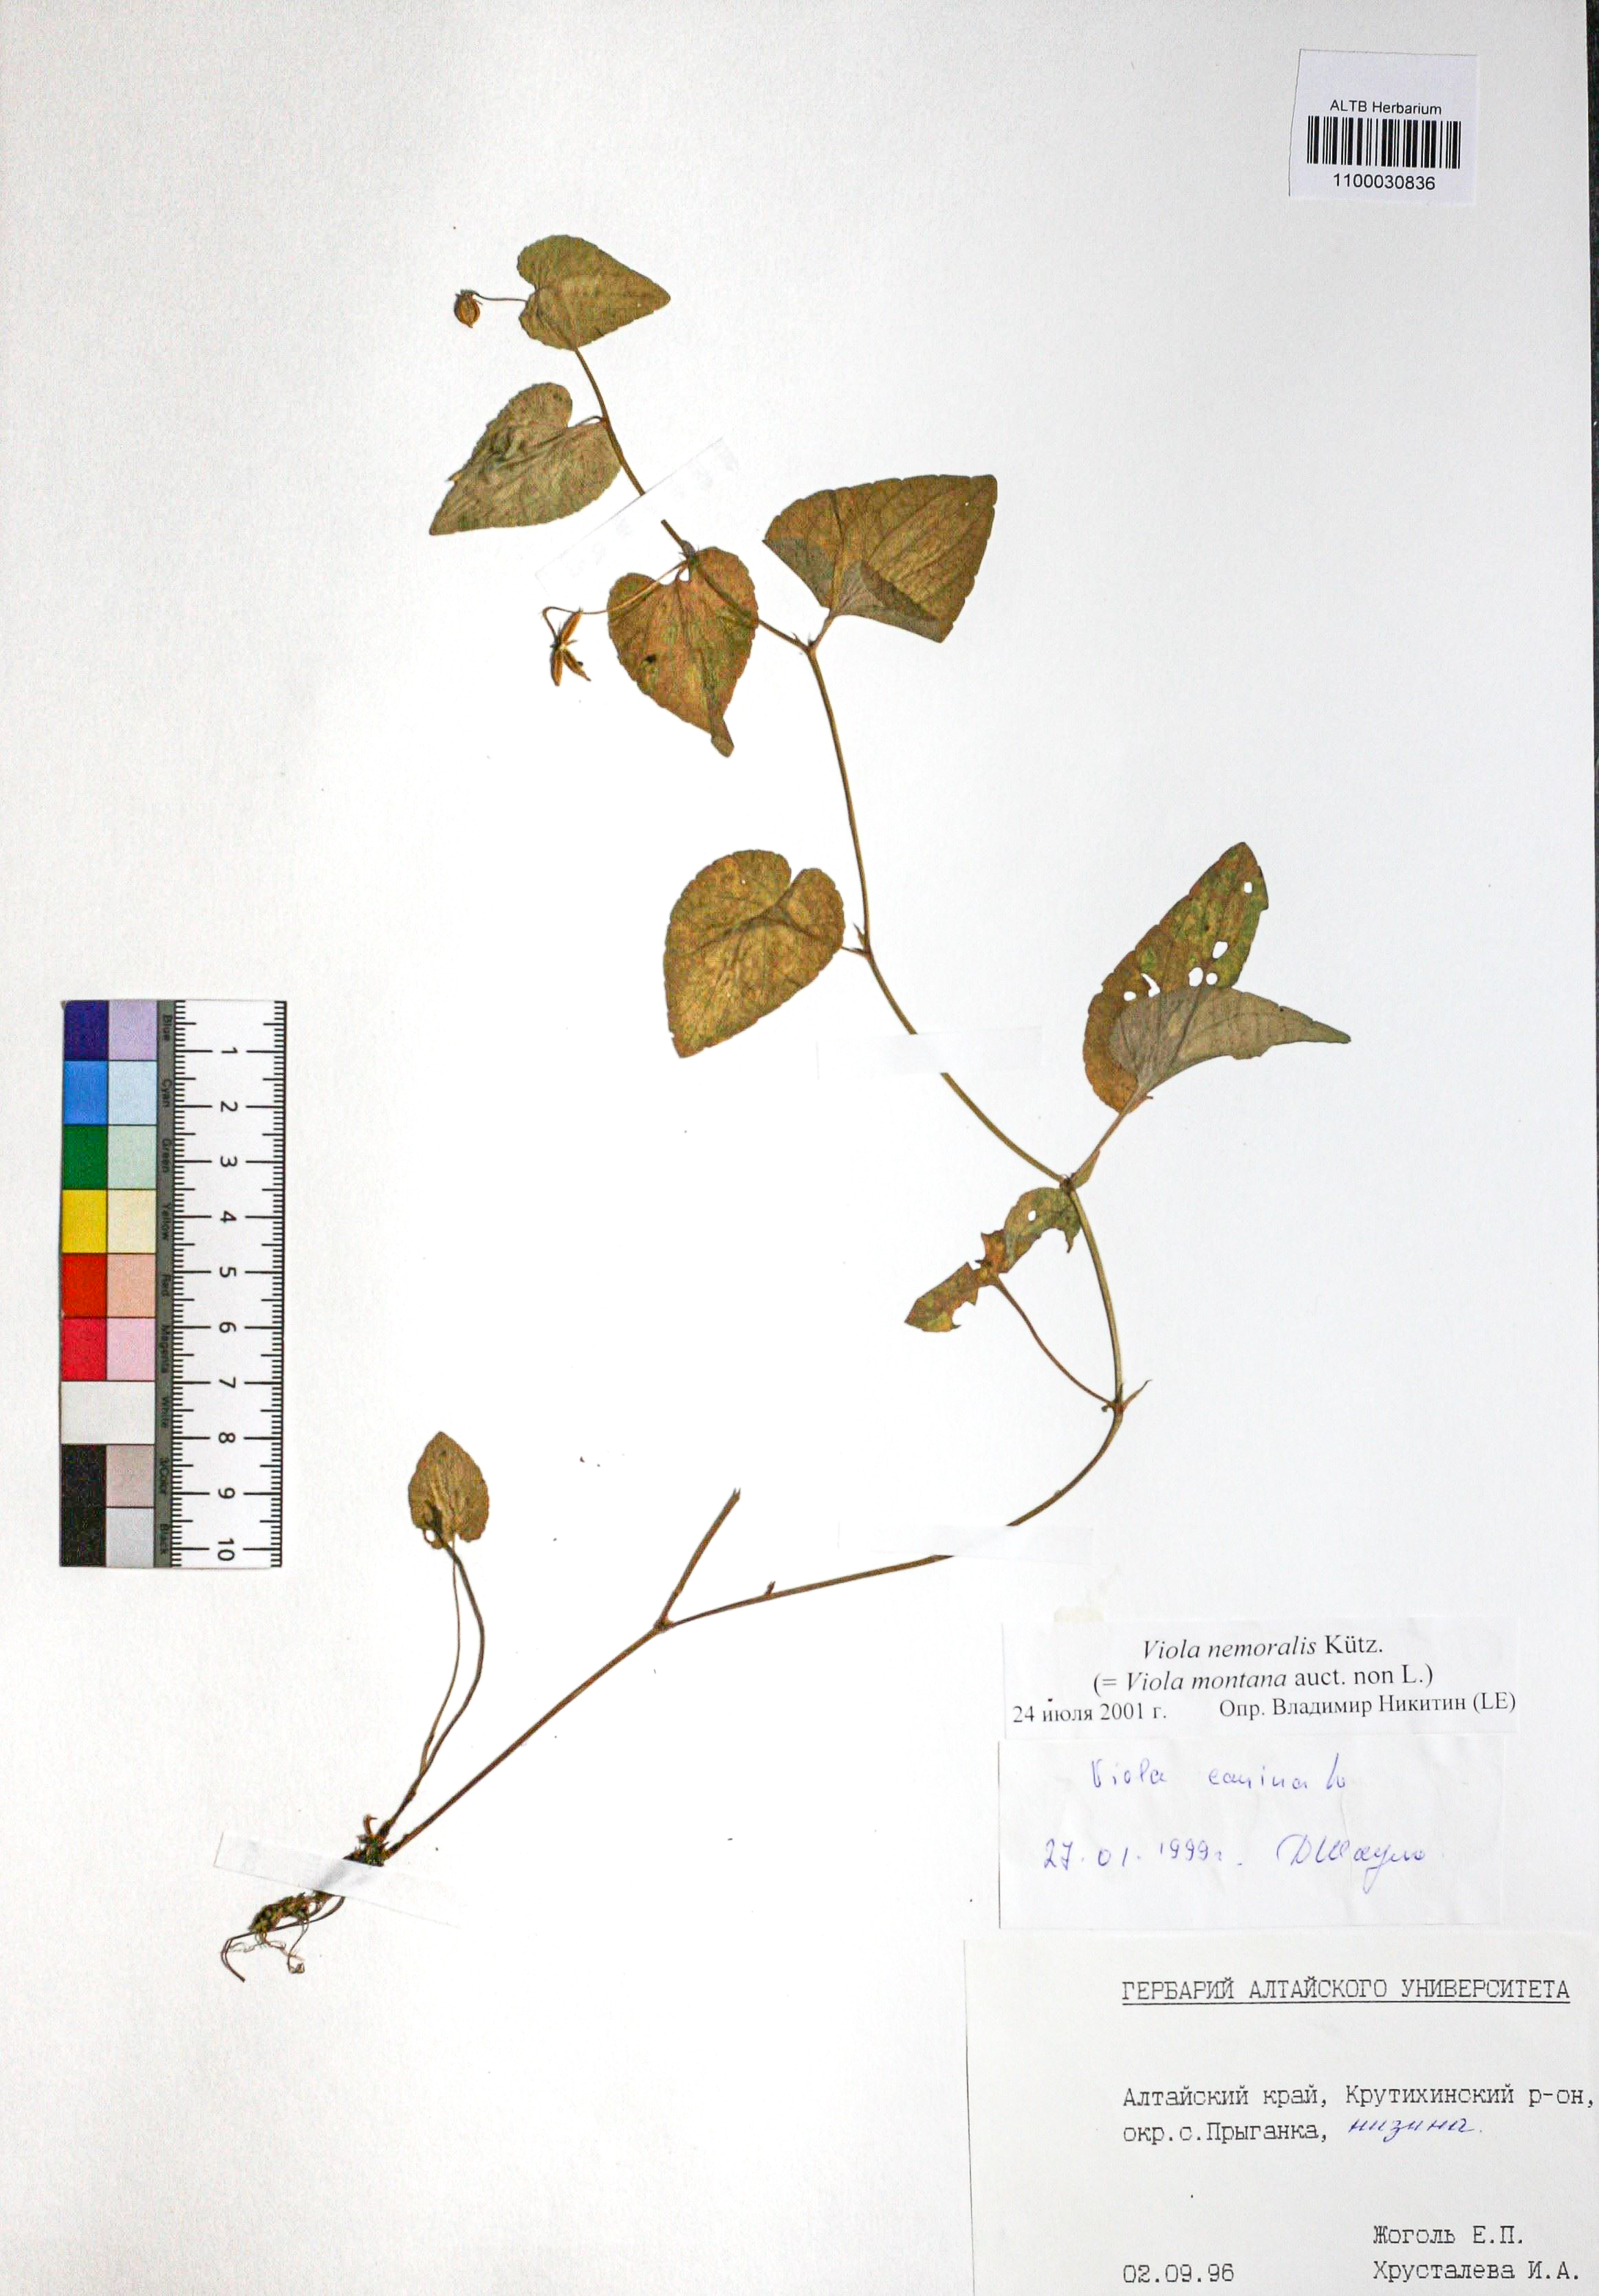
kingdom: Plantae
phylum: Tracheophyta
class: Magnoliopsida
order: Malpighiales
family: Violaceae
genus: Viola
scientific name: Viola ruppii
